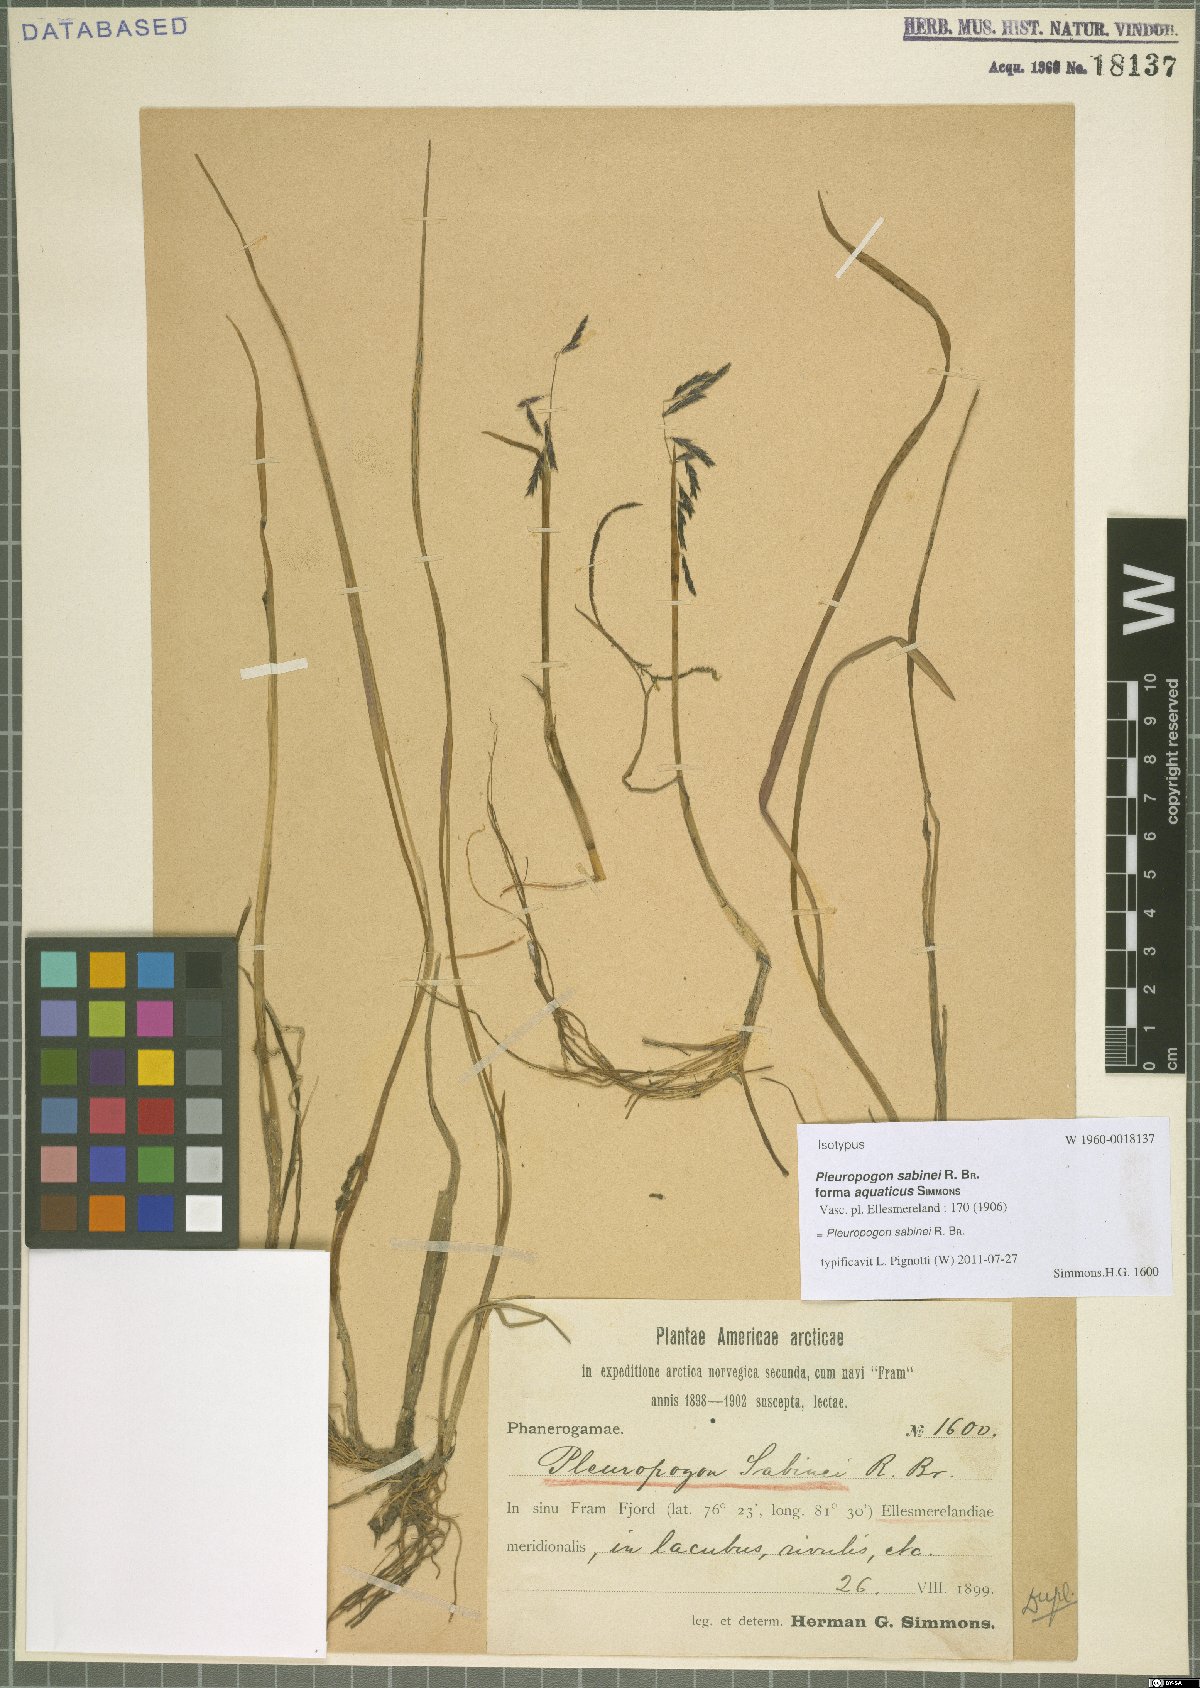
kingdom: Plantae
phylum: Tracheophyta
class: Liliopsida
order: Poales
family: Poaceae
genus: Pleuropogon
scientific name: Pleuropogon sabinei
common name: Sabine's false semaphoregrass
